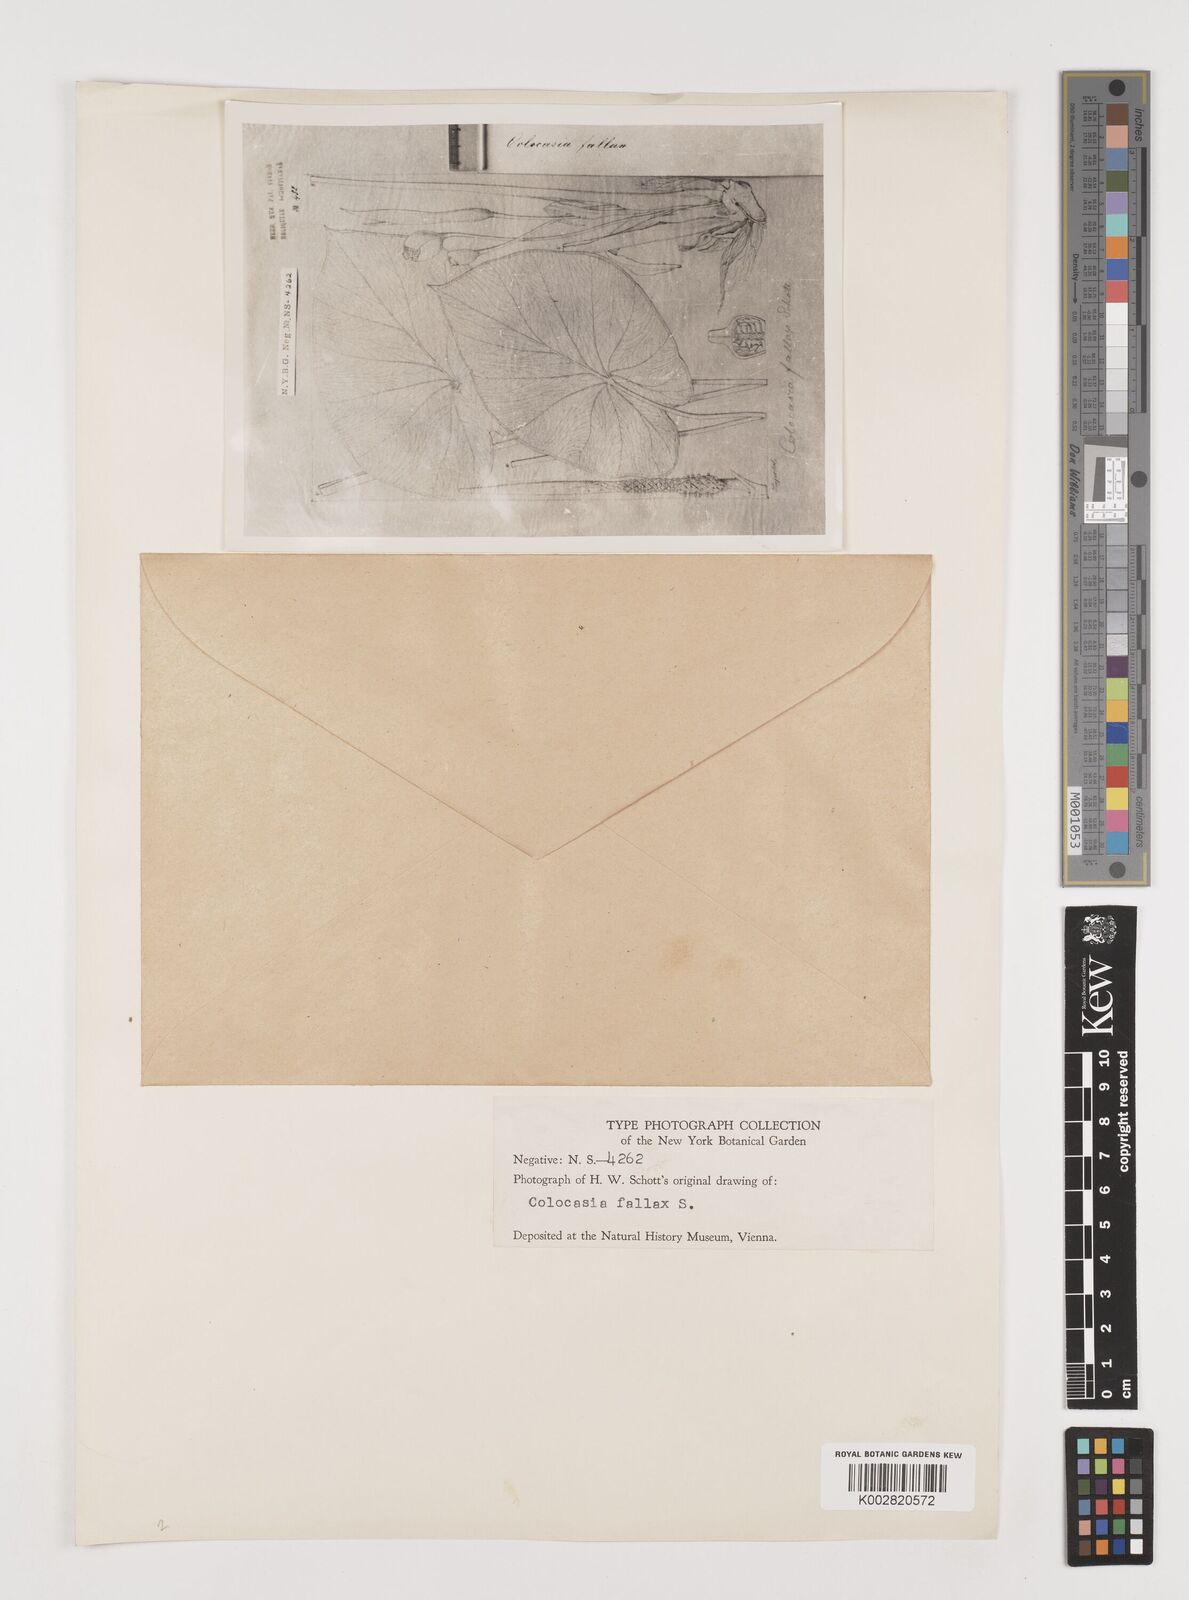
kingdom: Plantae
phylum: Tracheophyta
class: Liliopsida
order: Alismatales
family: Araceae
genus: Colocasia
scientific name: Colocasia fallax
